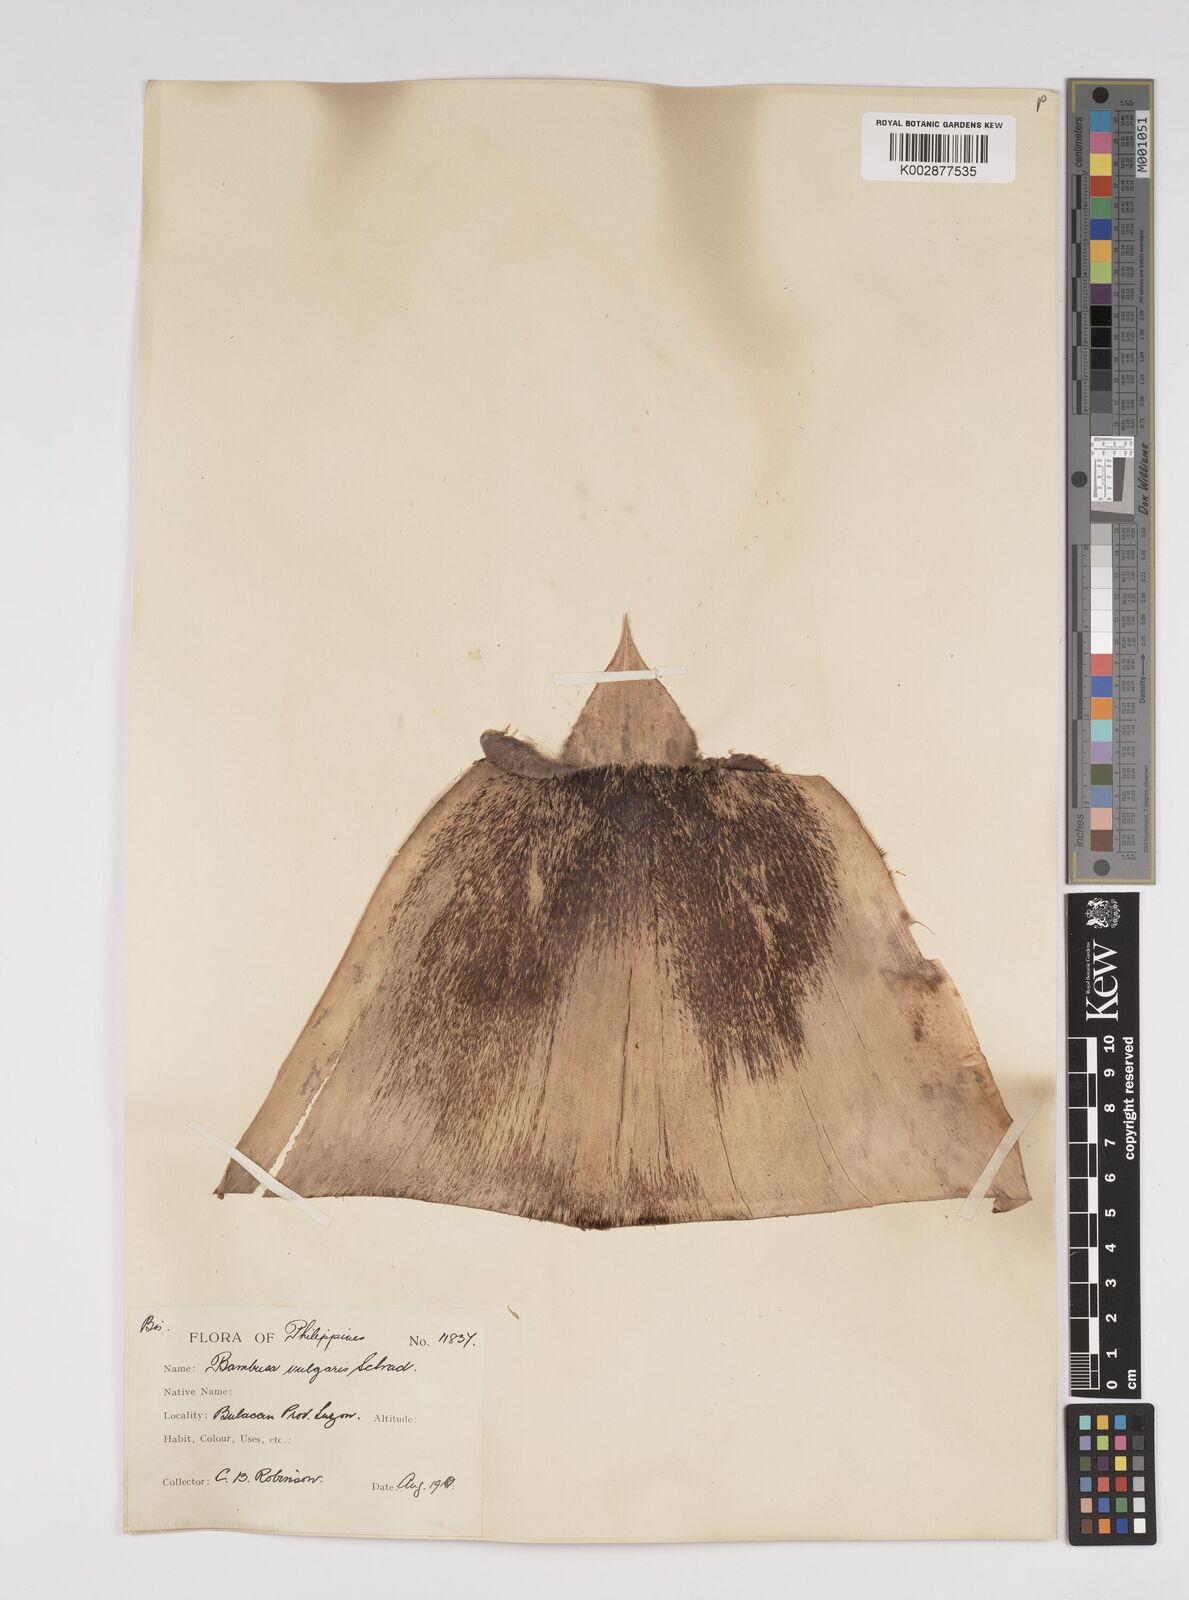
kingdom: Plantae
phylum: Tracheophyta
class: Liliopsida
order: Poales
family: Poaceae
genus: Bambusa
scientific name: Bambusa vulgaris
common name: Common bamboo
